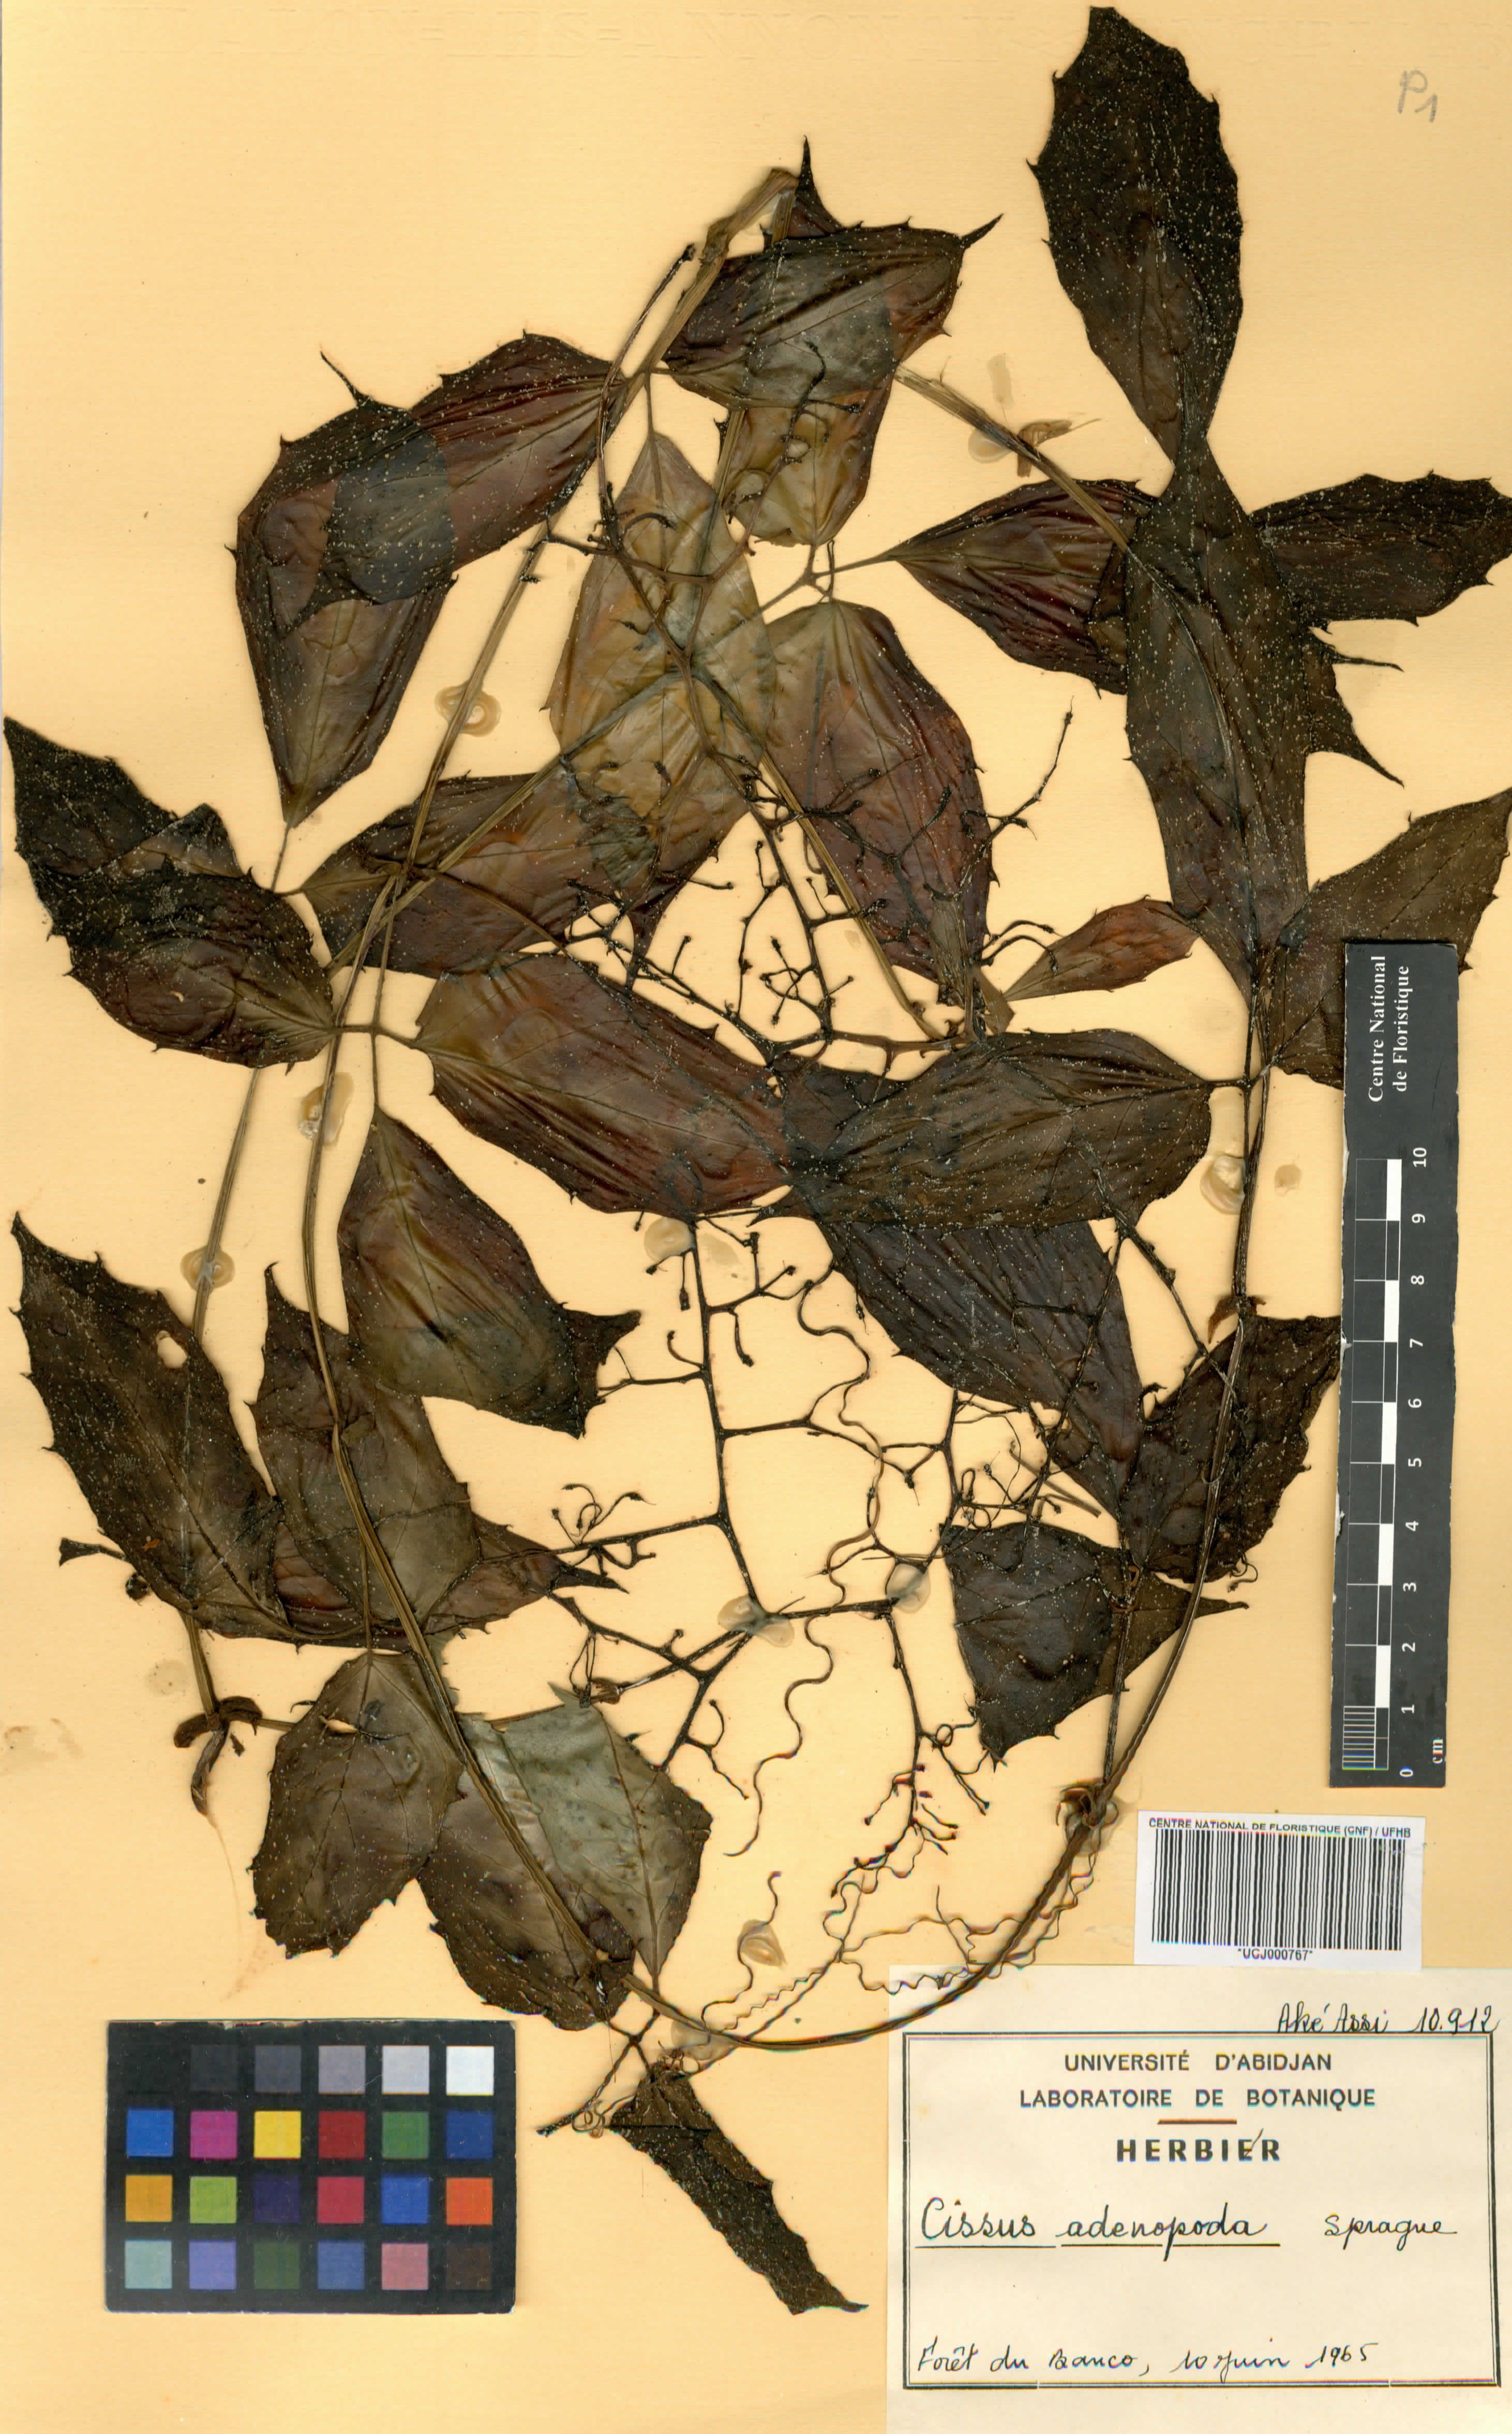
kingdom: Plantae
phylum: Tracheophyta
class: Magnoliopsida
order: Vitales
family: Vitaceae
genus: Cyphostemma
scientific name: Cyphostemma adenopodum
